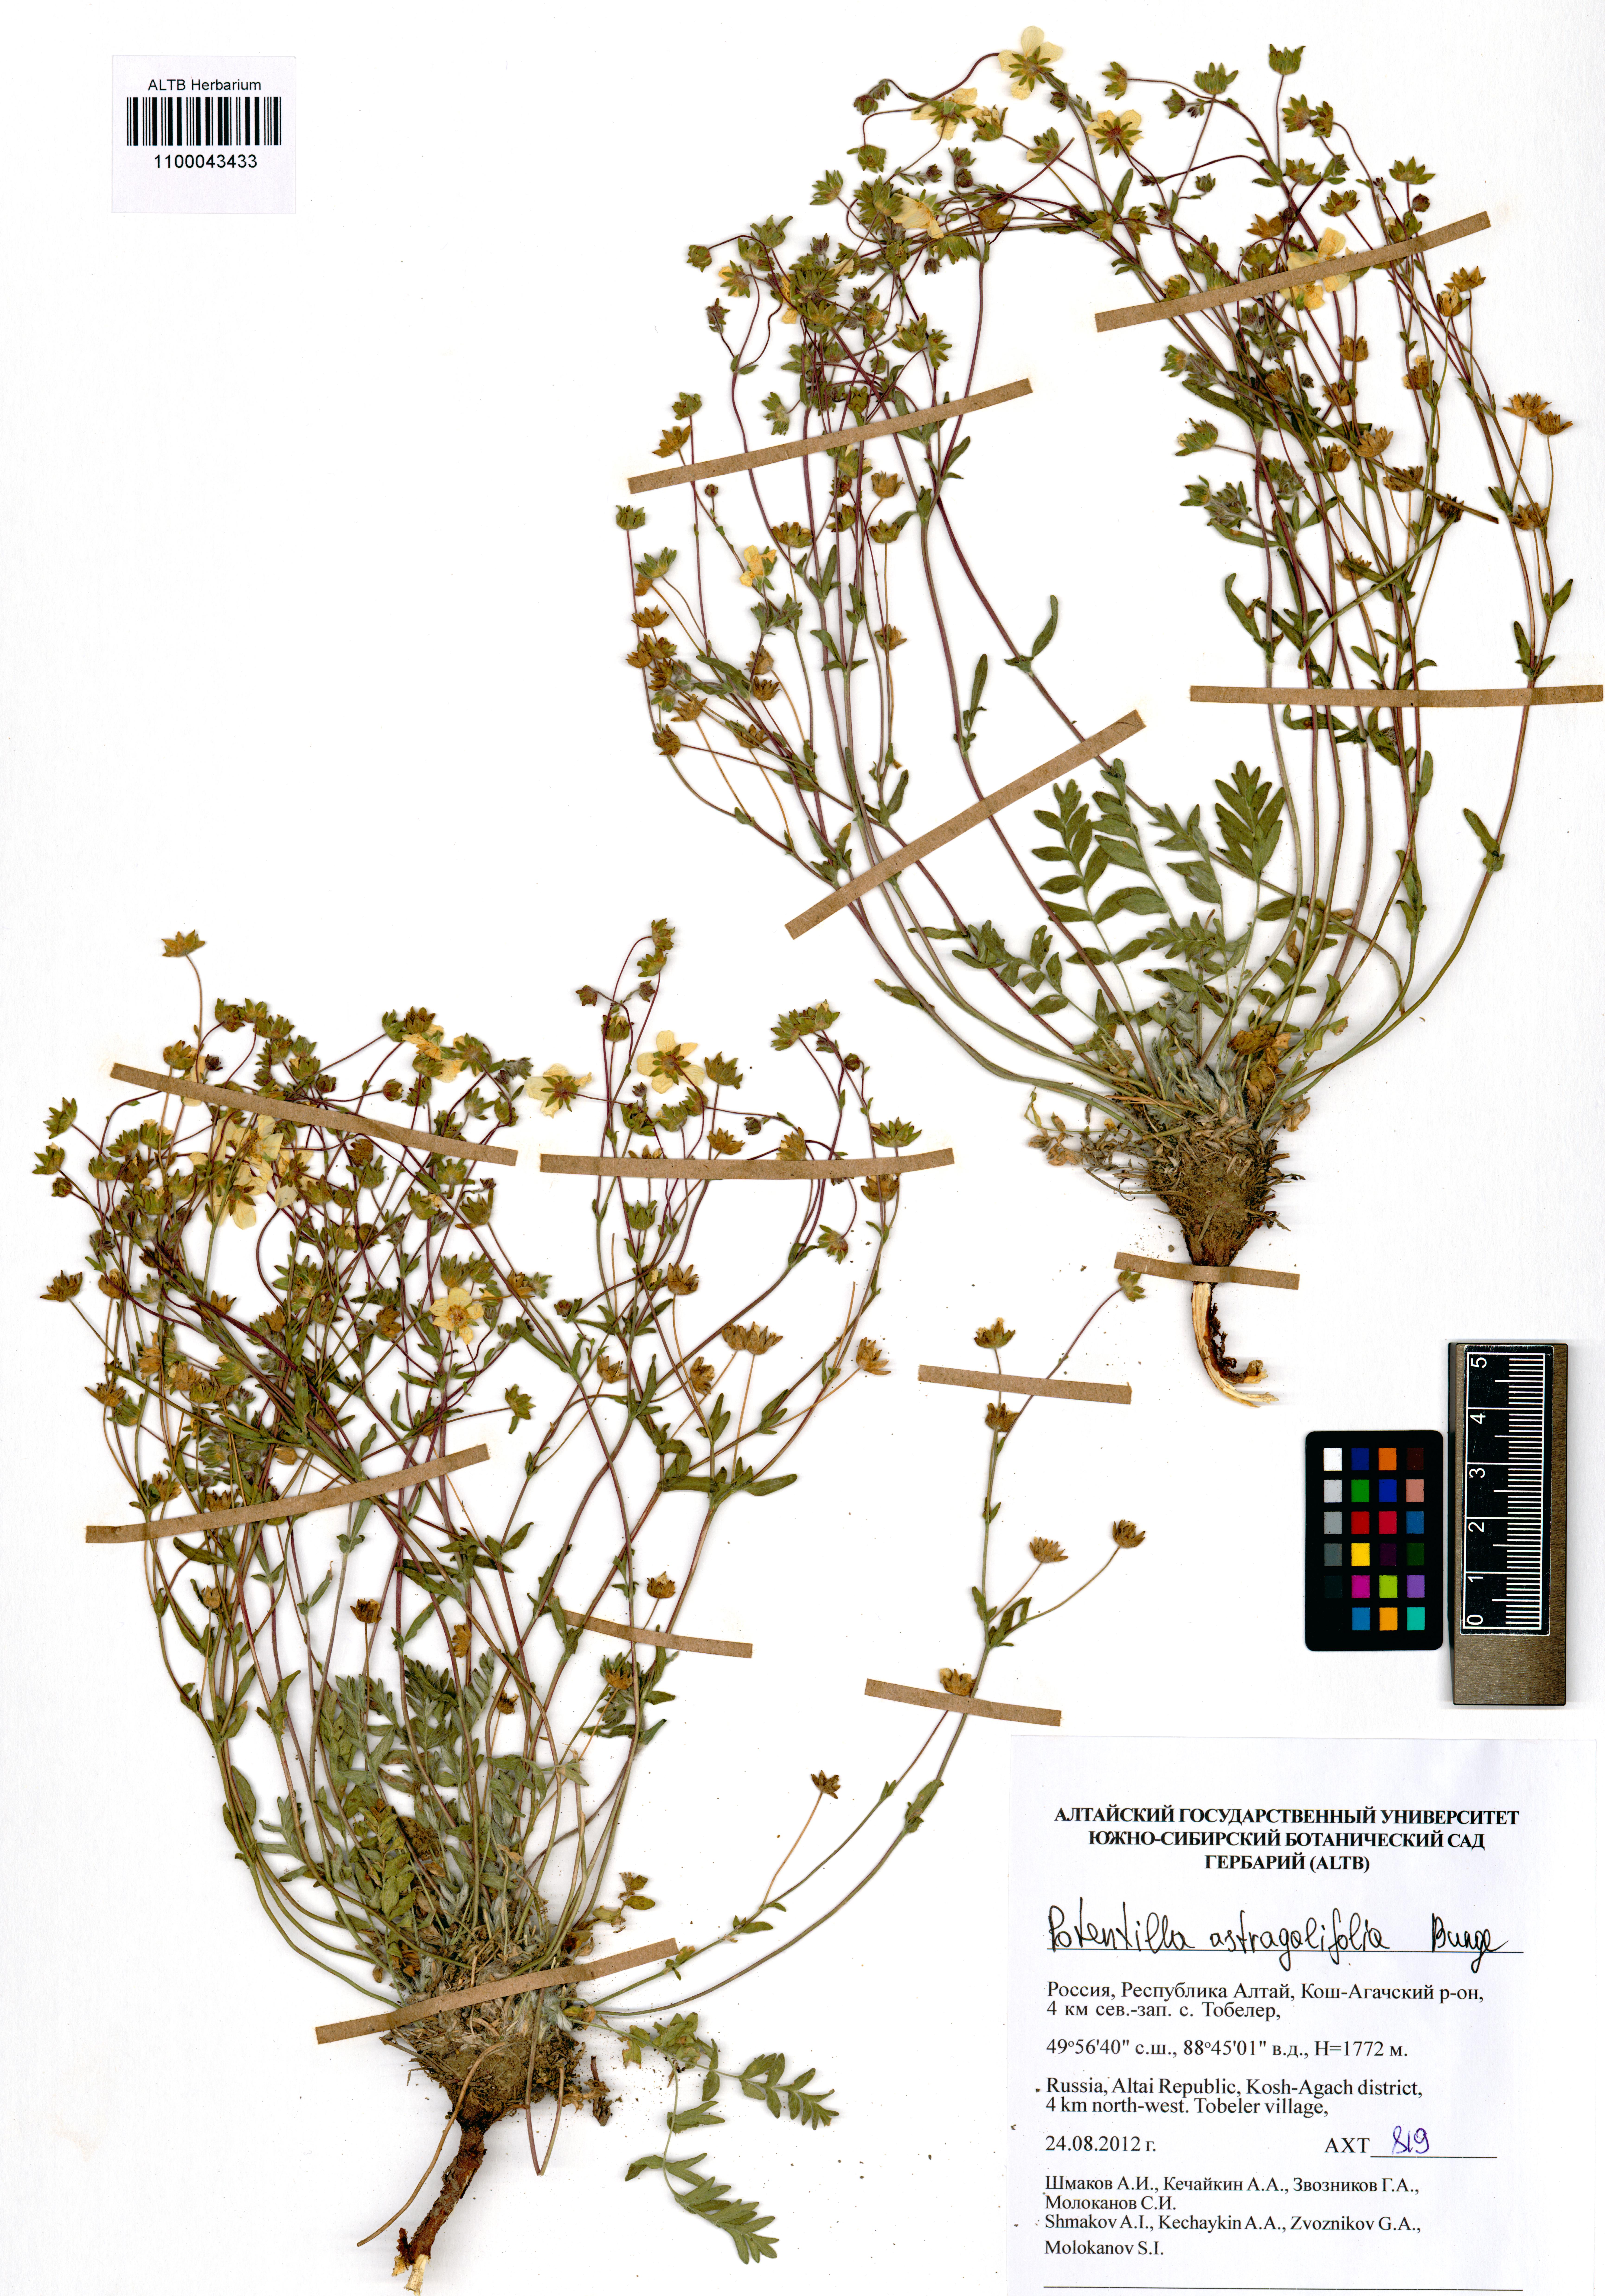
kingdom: Plantae
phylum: Tracheophyta
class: Magnoliopsida
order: Rosales
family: Rosaceae
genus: Potentilla
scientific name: Potentilla astragalifolia
